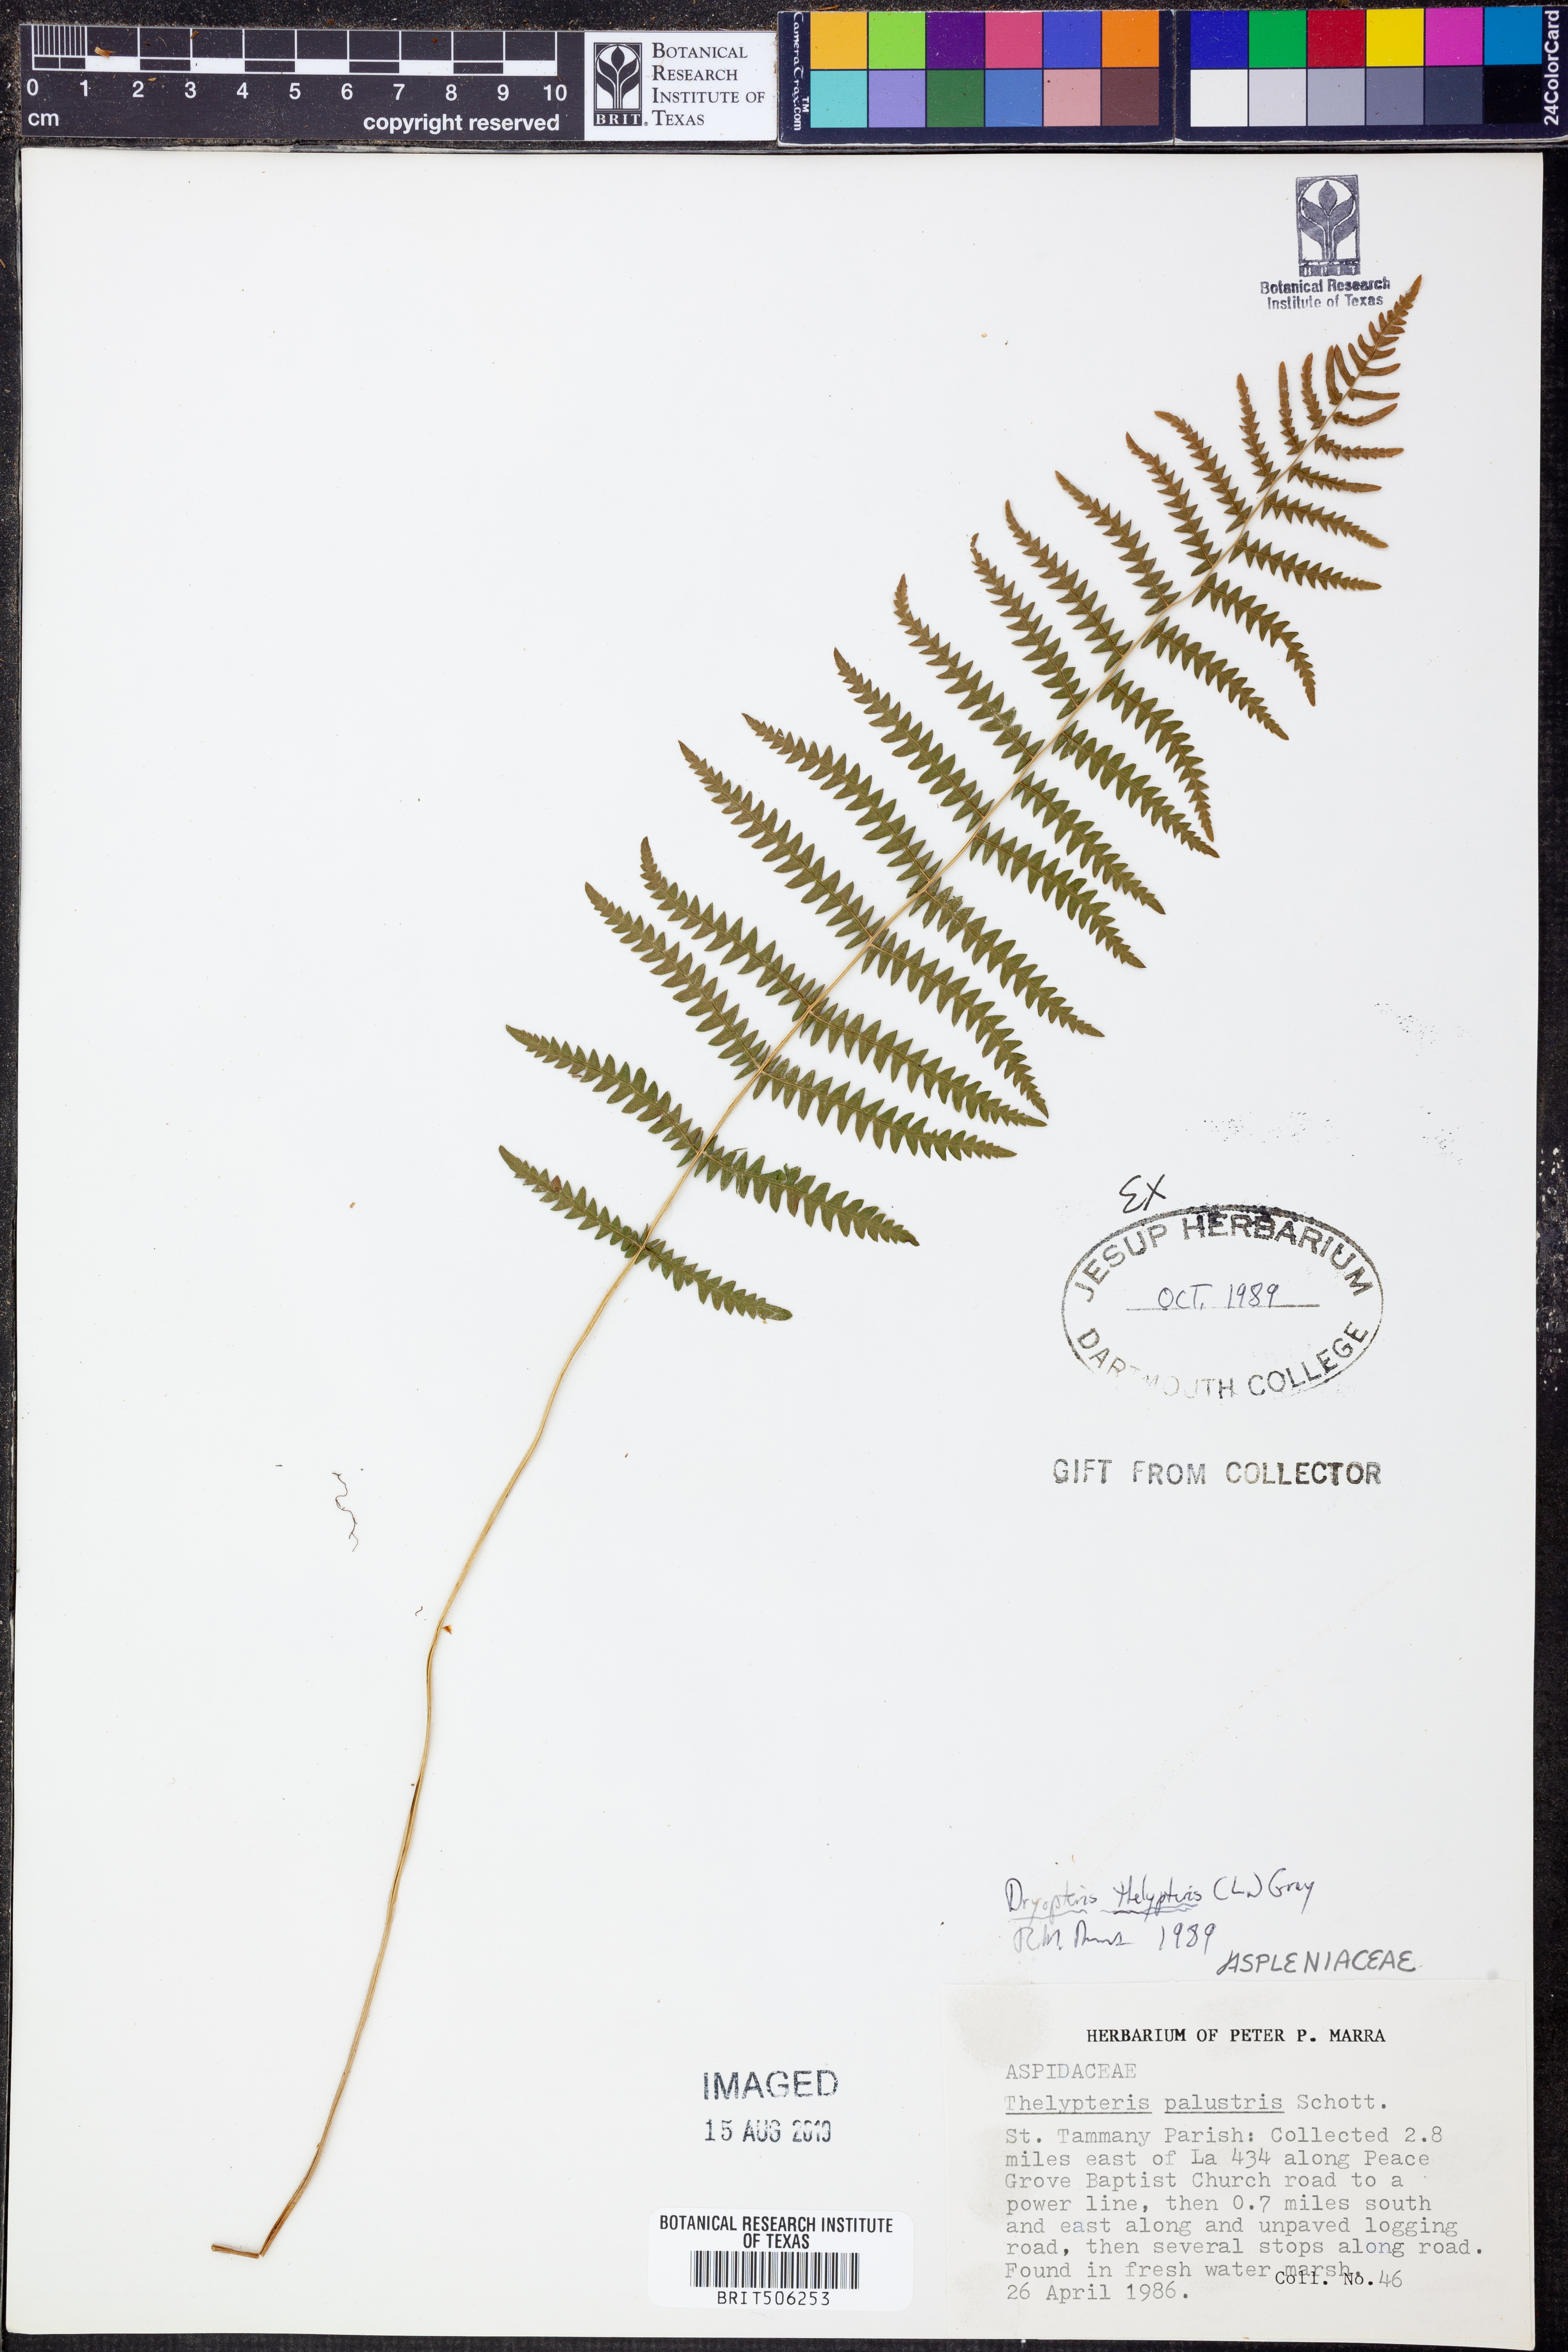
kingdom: Plantae
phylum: Tracheophyta
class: Polypodiopsida
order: Polypodiales
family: Thelypteridaceae
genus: Thelypteris
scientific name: Thelypteris palustris
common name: Marsh fern
